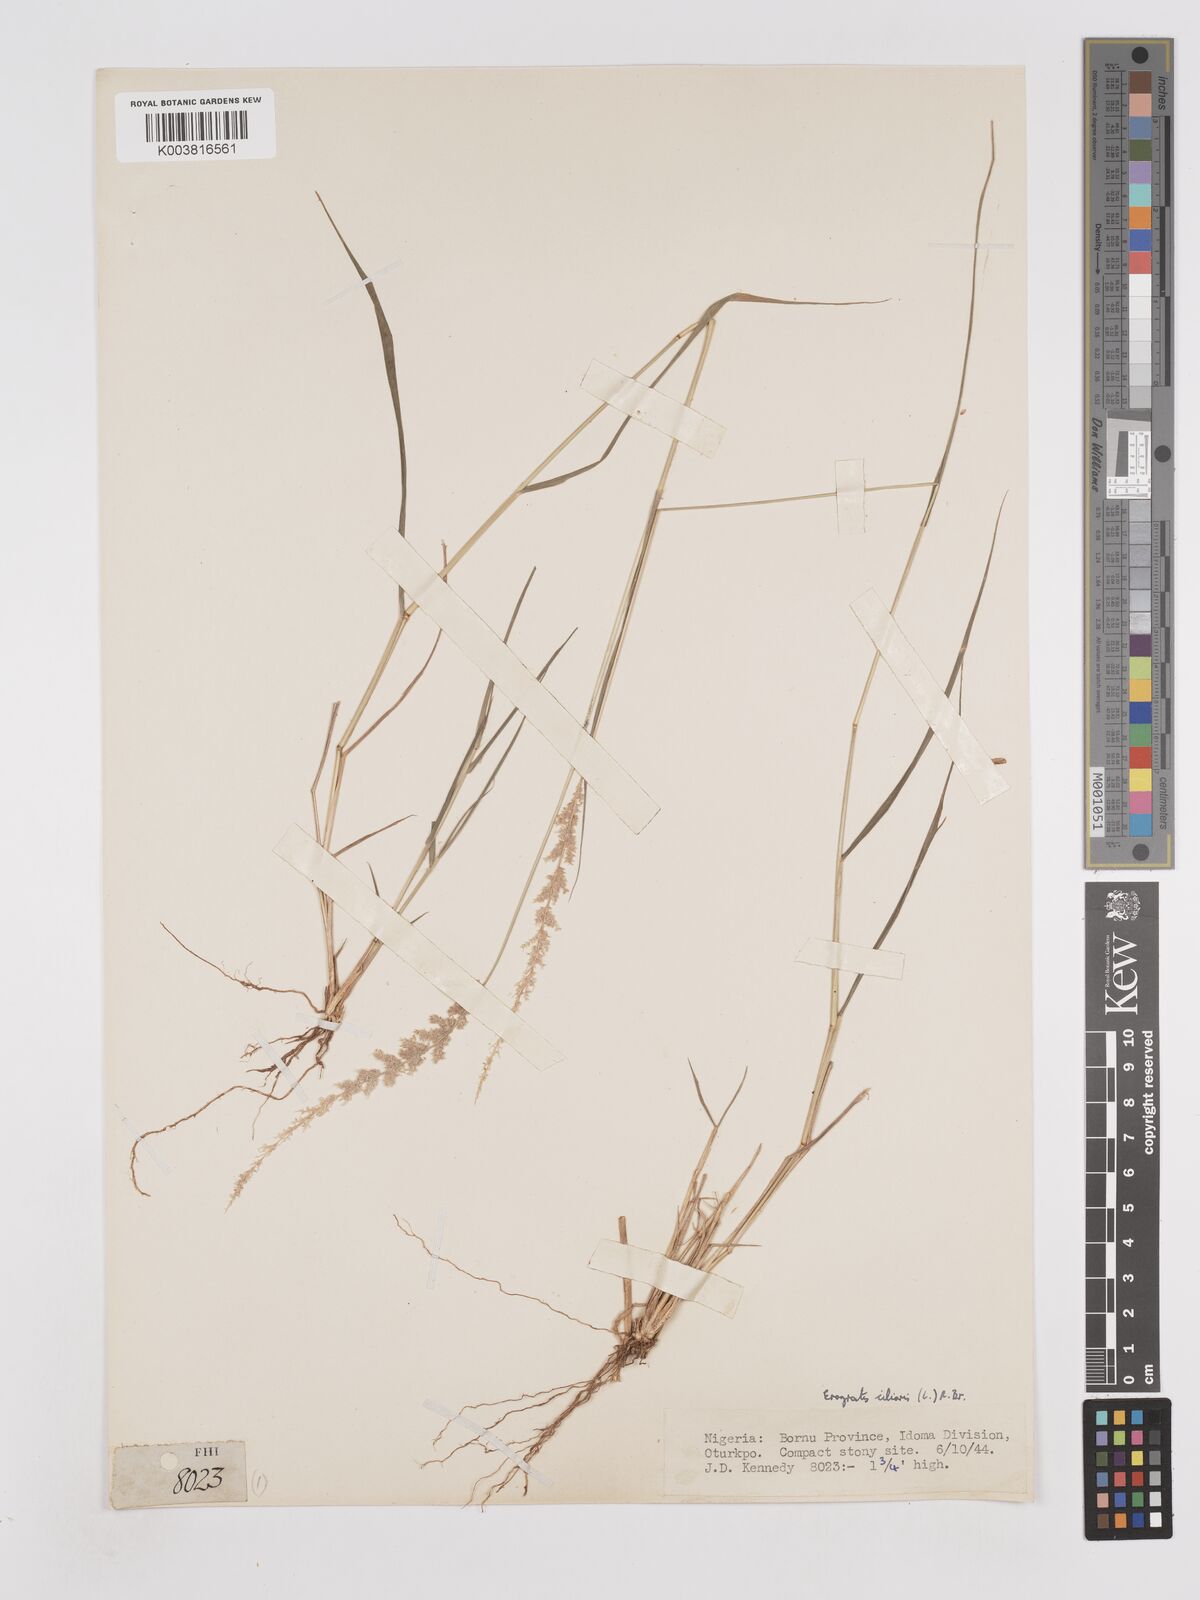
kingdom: Plantae
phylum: Tracheophyta
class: Liliopsida
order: Poales
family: Poaceae
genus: Eragrostis
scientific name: Eragrostis ciliaris
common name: Gophertail lovegrass
